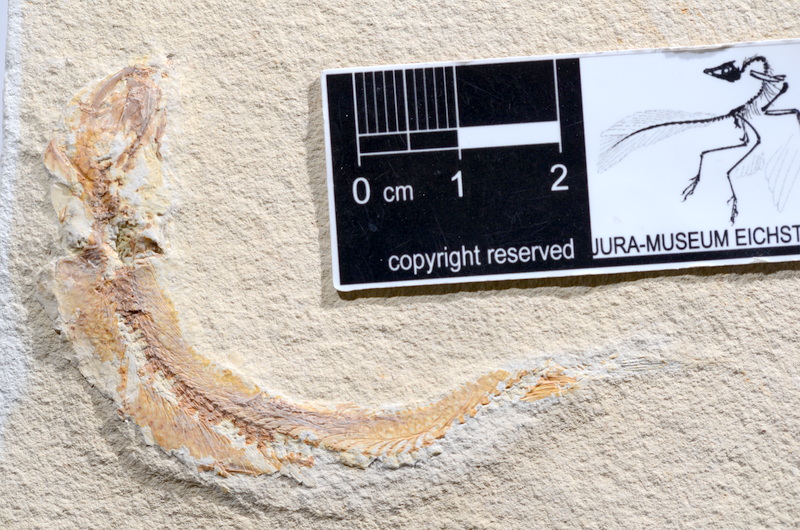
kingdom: Animalia
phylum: Chordata
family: Ascalaboidae
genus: Tharsis
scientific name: Tharsis dubius
